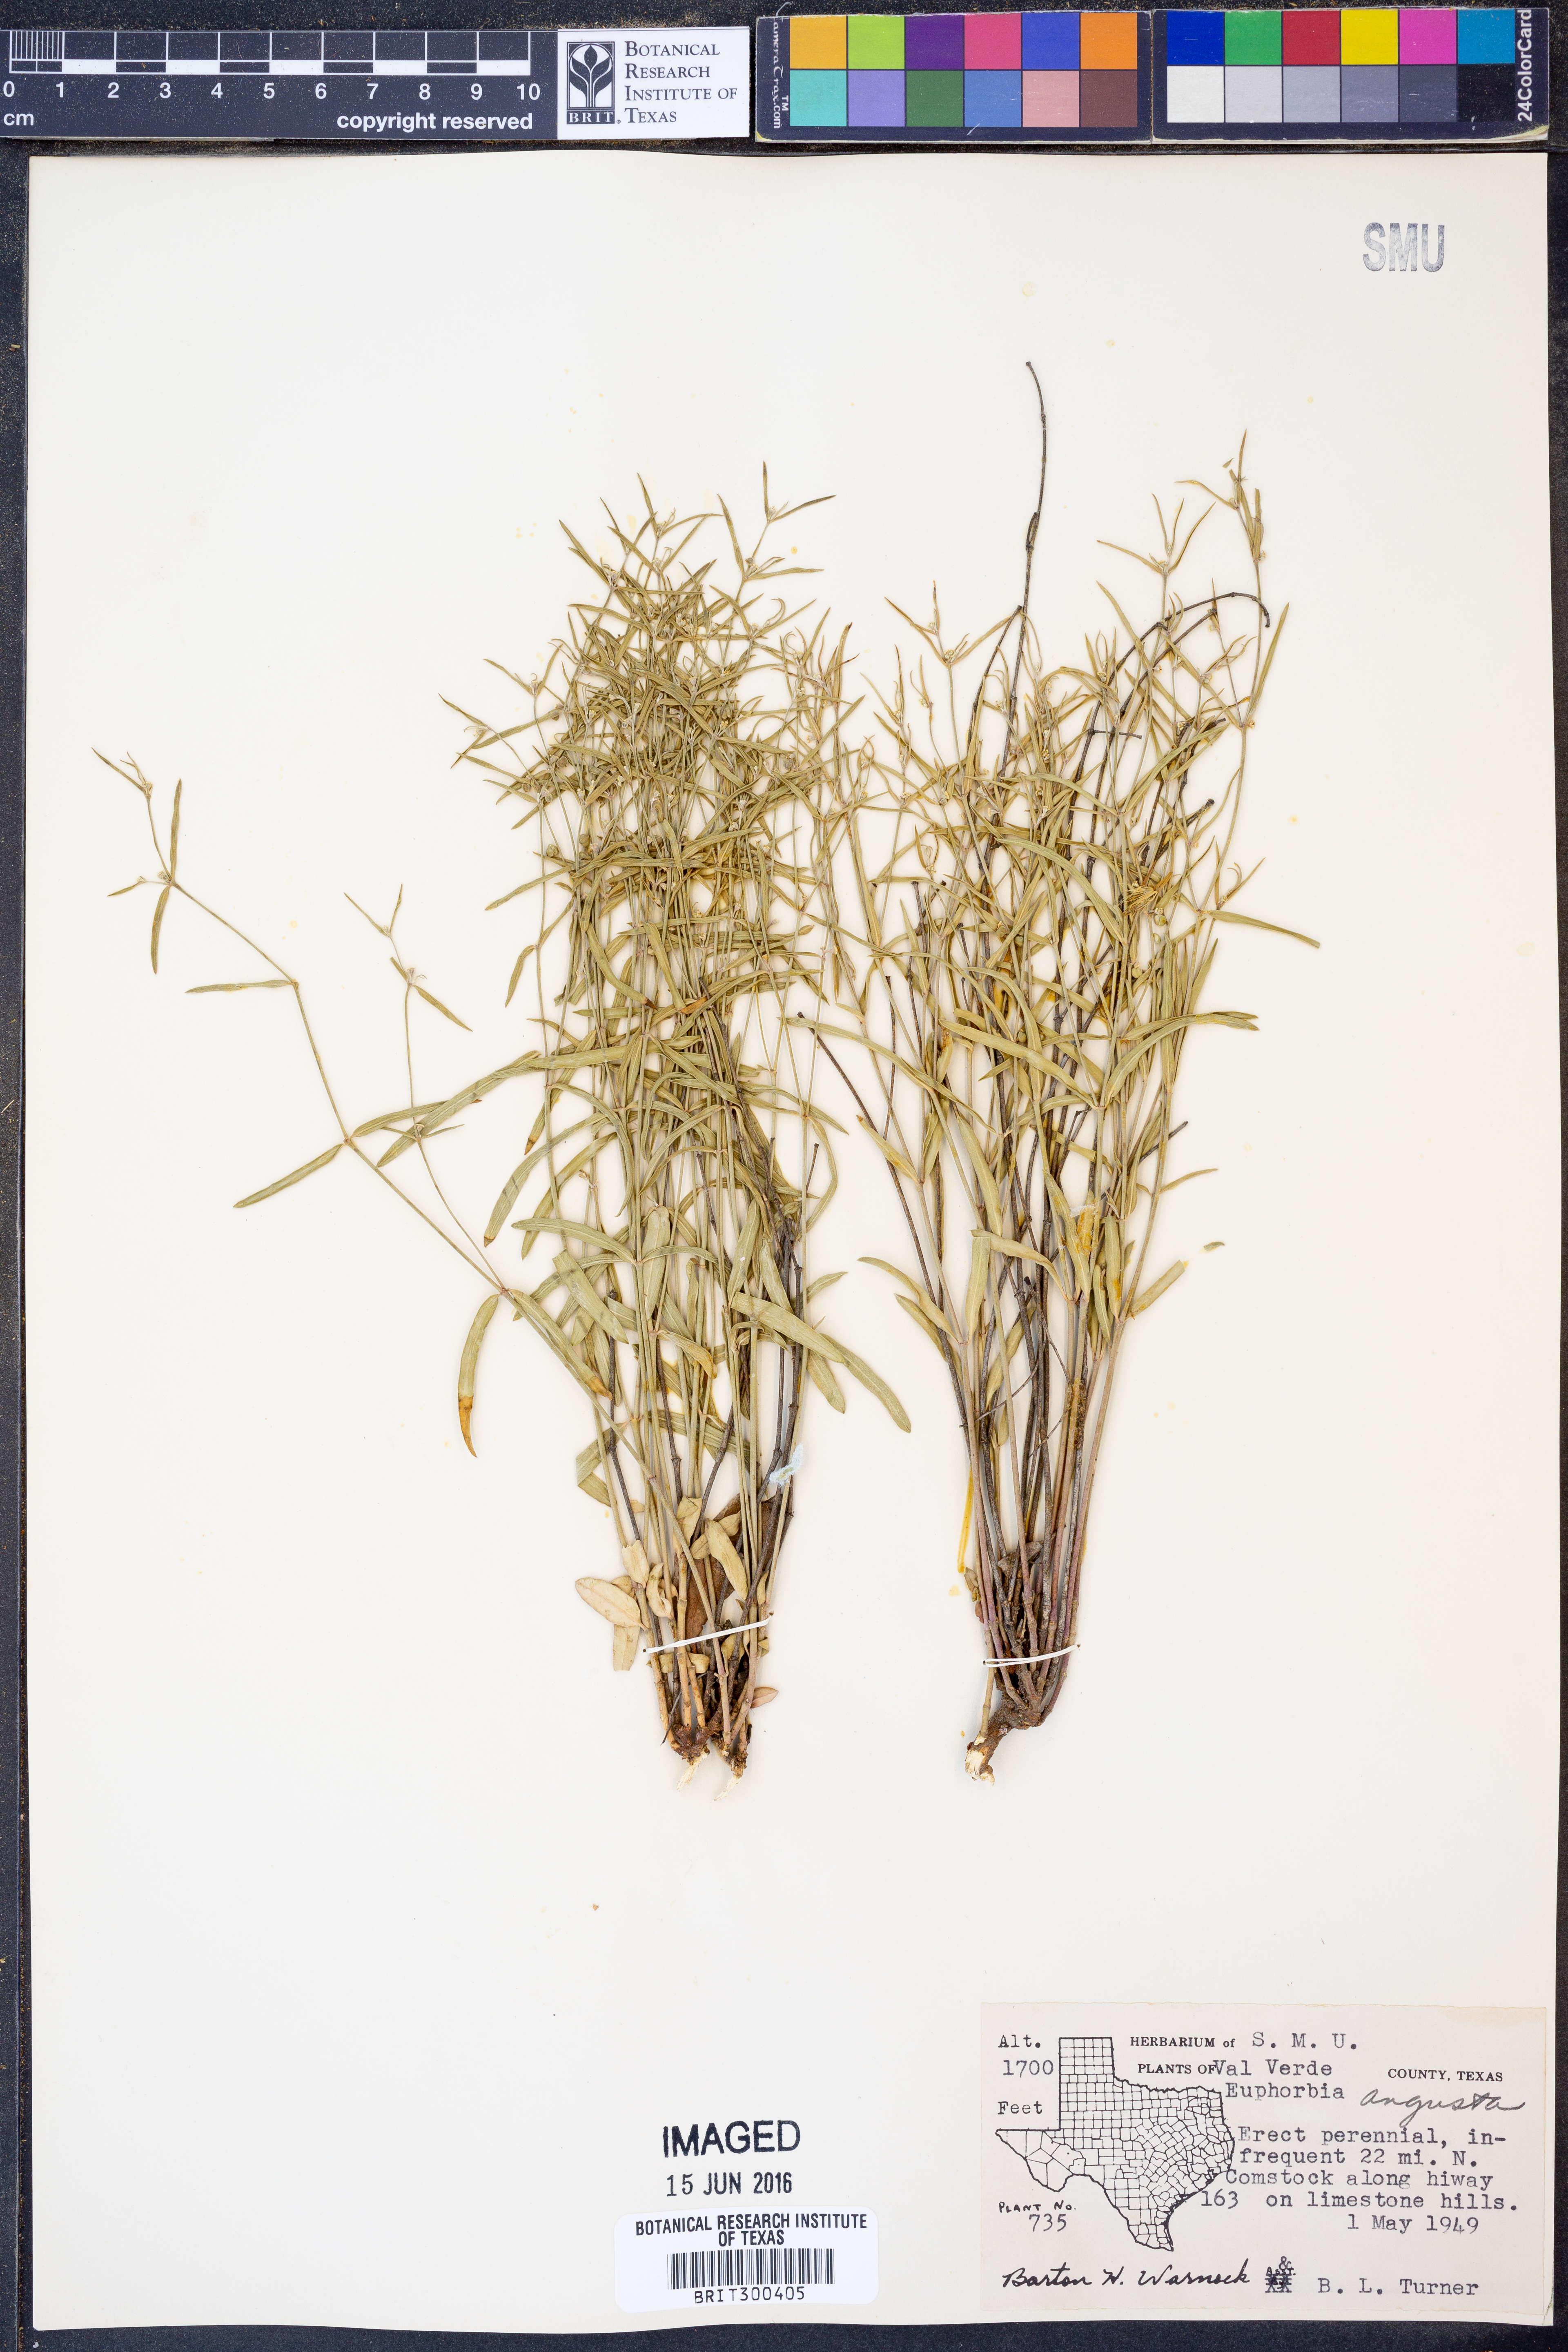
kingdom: Plantae
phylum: Tracheophyta
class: Magnoliopsida
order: Malpighiales
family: Euphorbiaceae
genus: Euphorbia
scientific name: Euphorbia angusta
